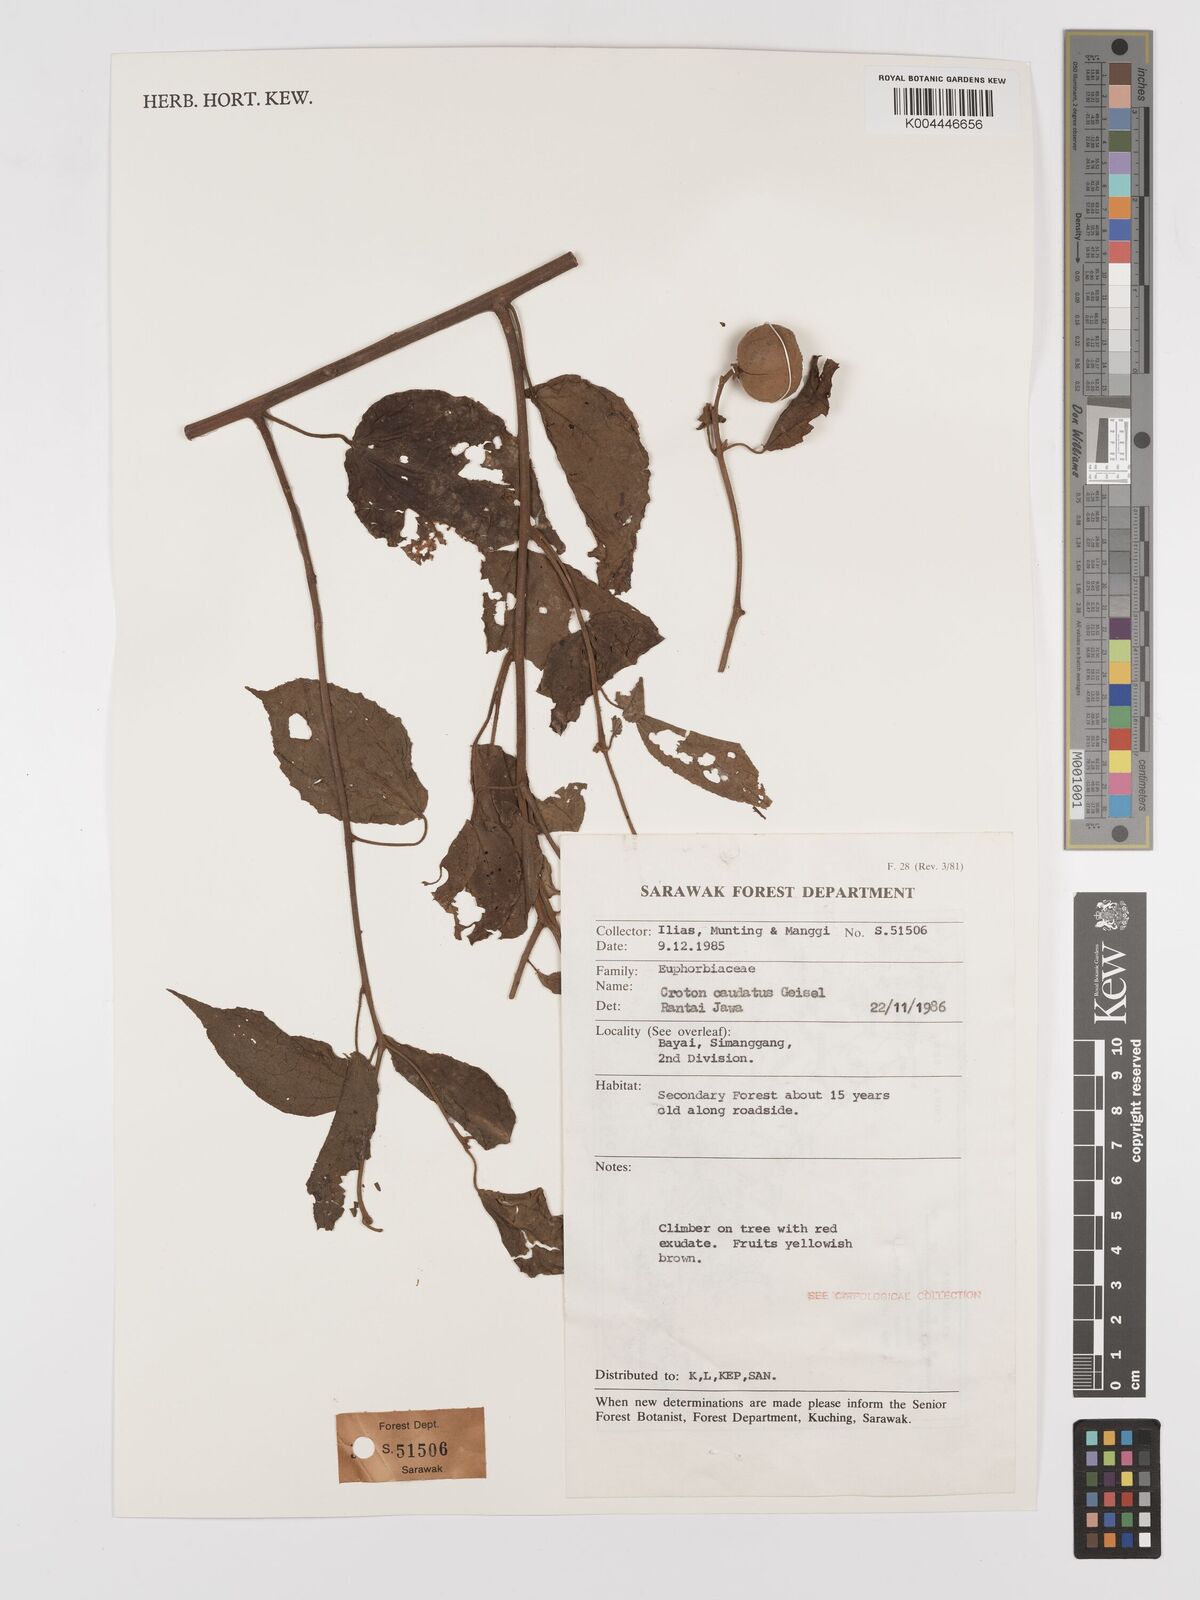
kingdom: Plantae
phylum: Tracheophyta
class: Magnoliopsida
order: Malpighiales
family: Euphorbiaceae
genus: Croton
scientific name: Croton caudatus
